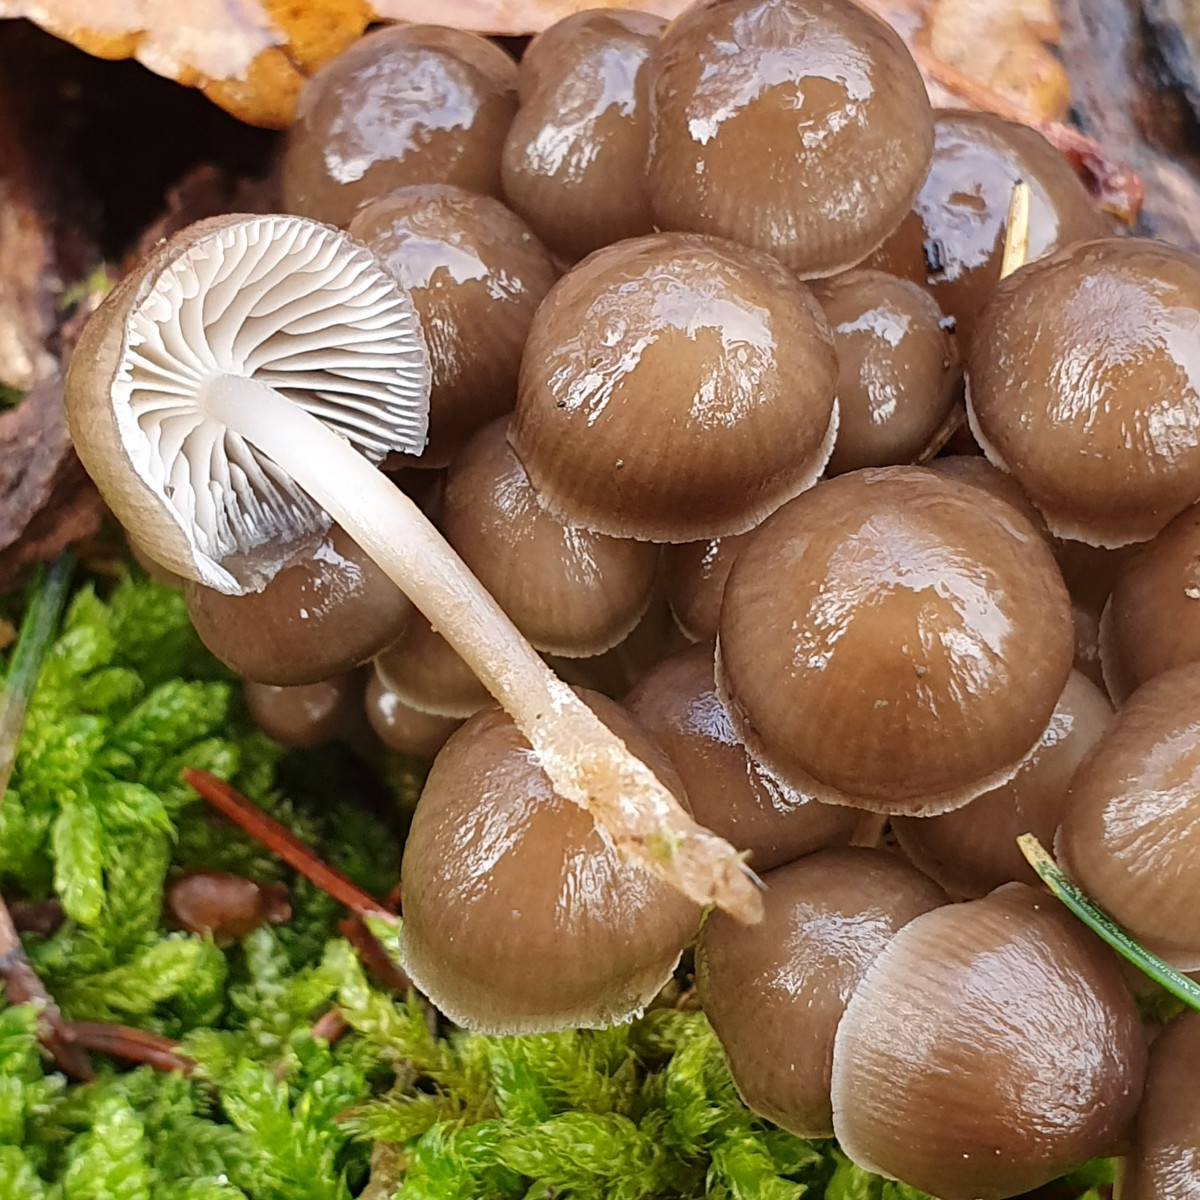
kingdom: Fungi
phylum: Basidiomycota
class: Agaricomycetes
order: Agaricales
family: Mycenaceae
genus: Mycena
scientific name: Mycena tintinnabulum
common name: vinter-huesvamp
